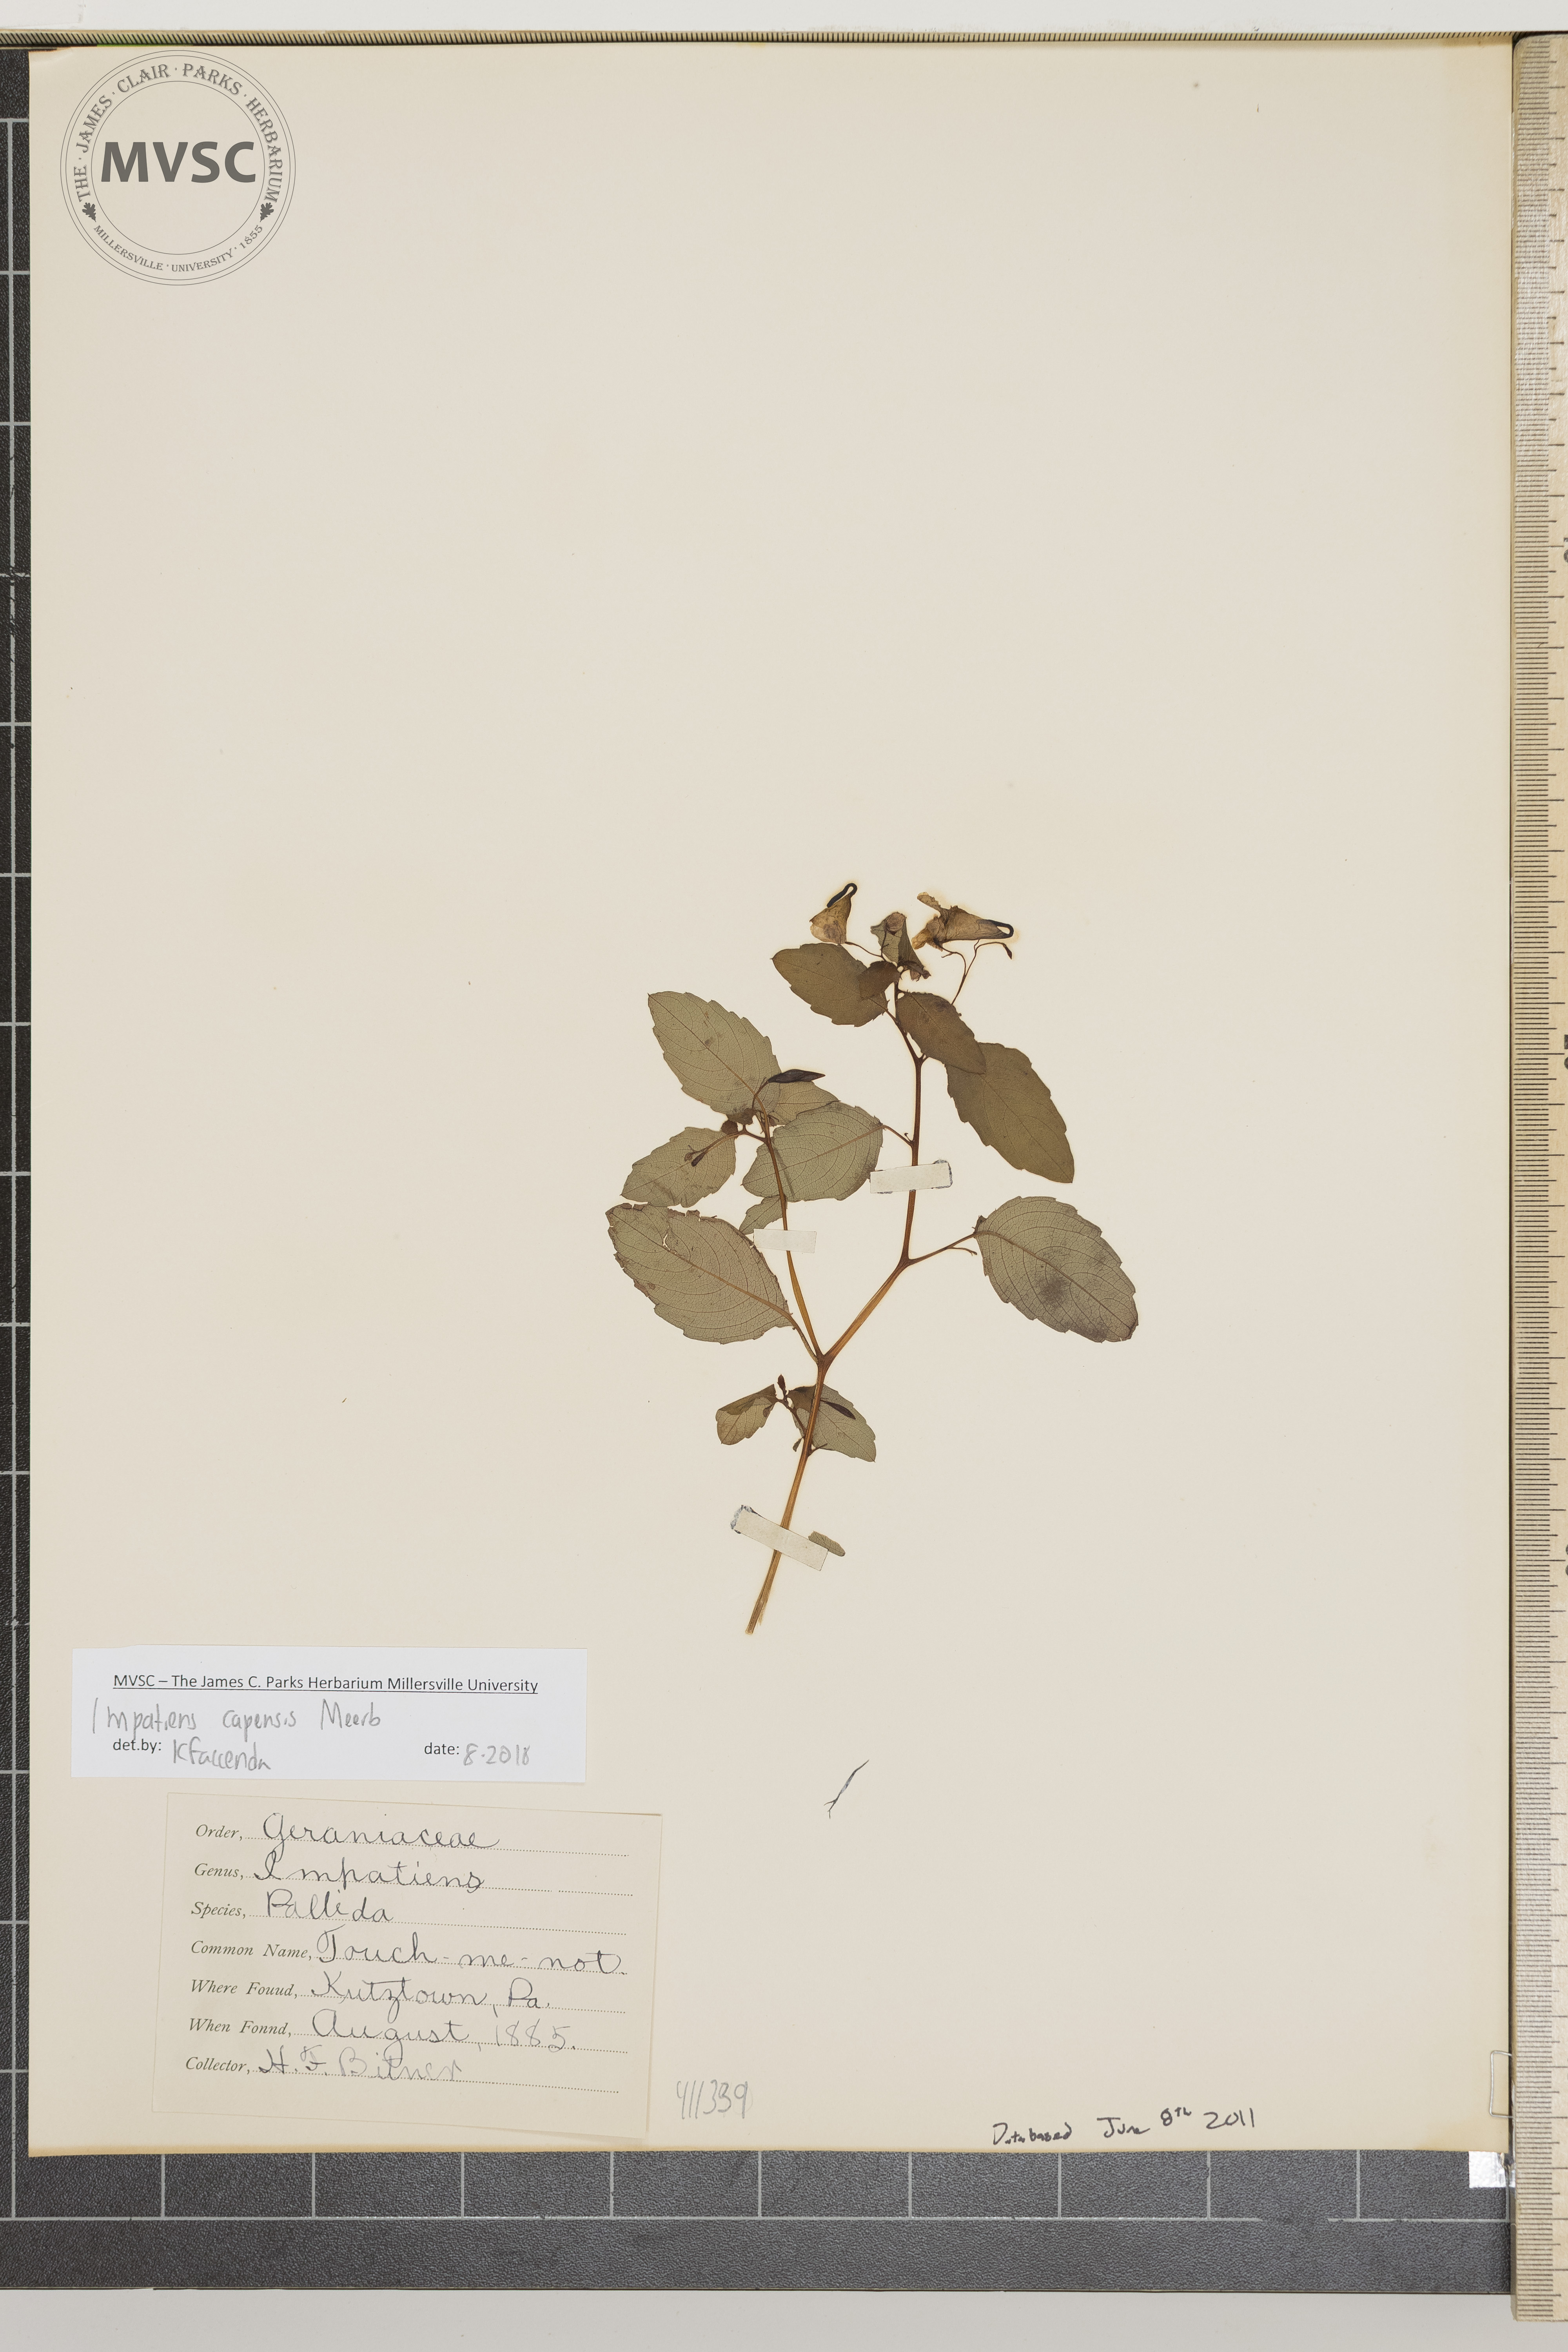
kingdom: Plantae
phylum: Tracheophyta
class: Magnoliopsida
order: Ericales
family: Balsaminaceae
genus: Impatiens
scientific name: Impatiens capensis
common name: Orange balsam
